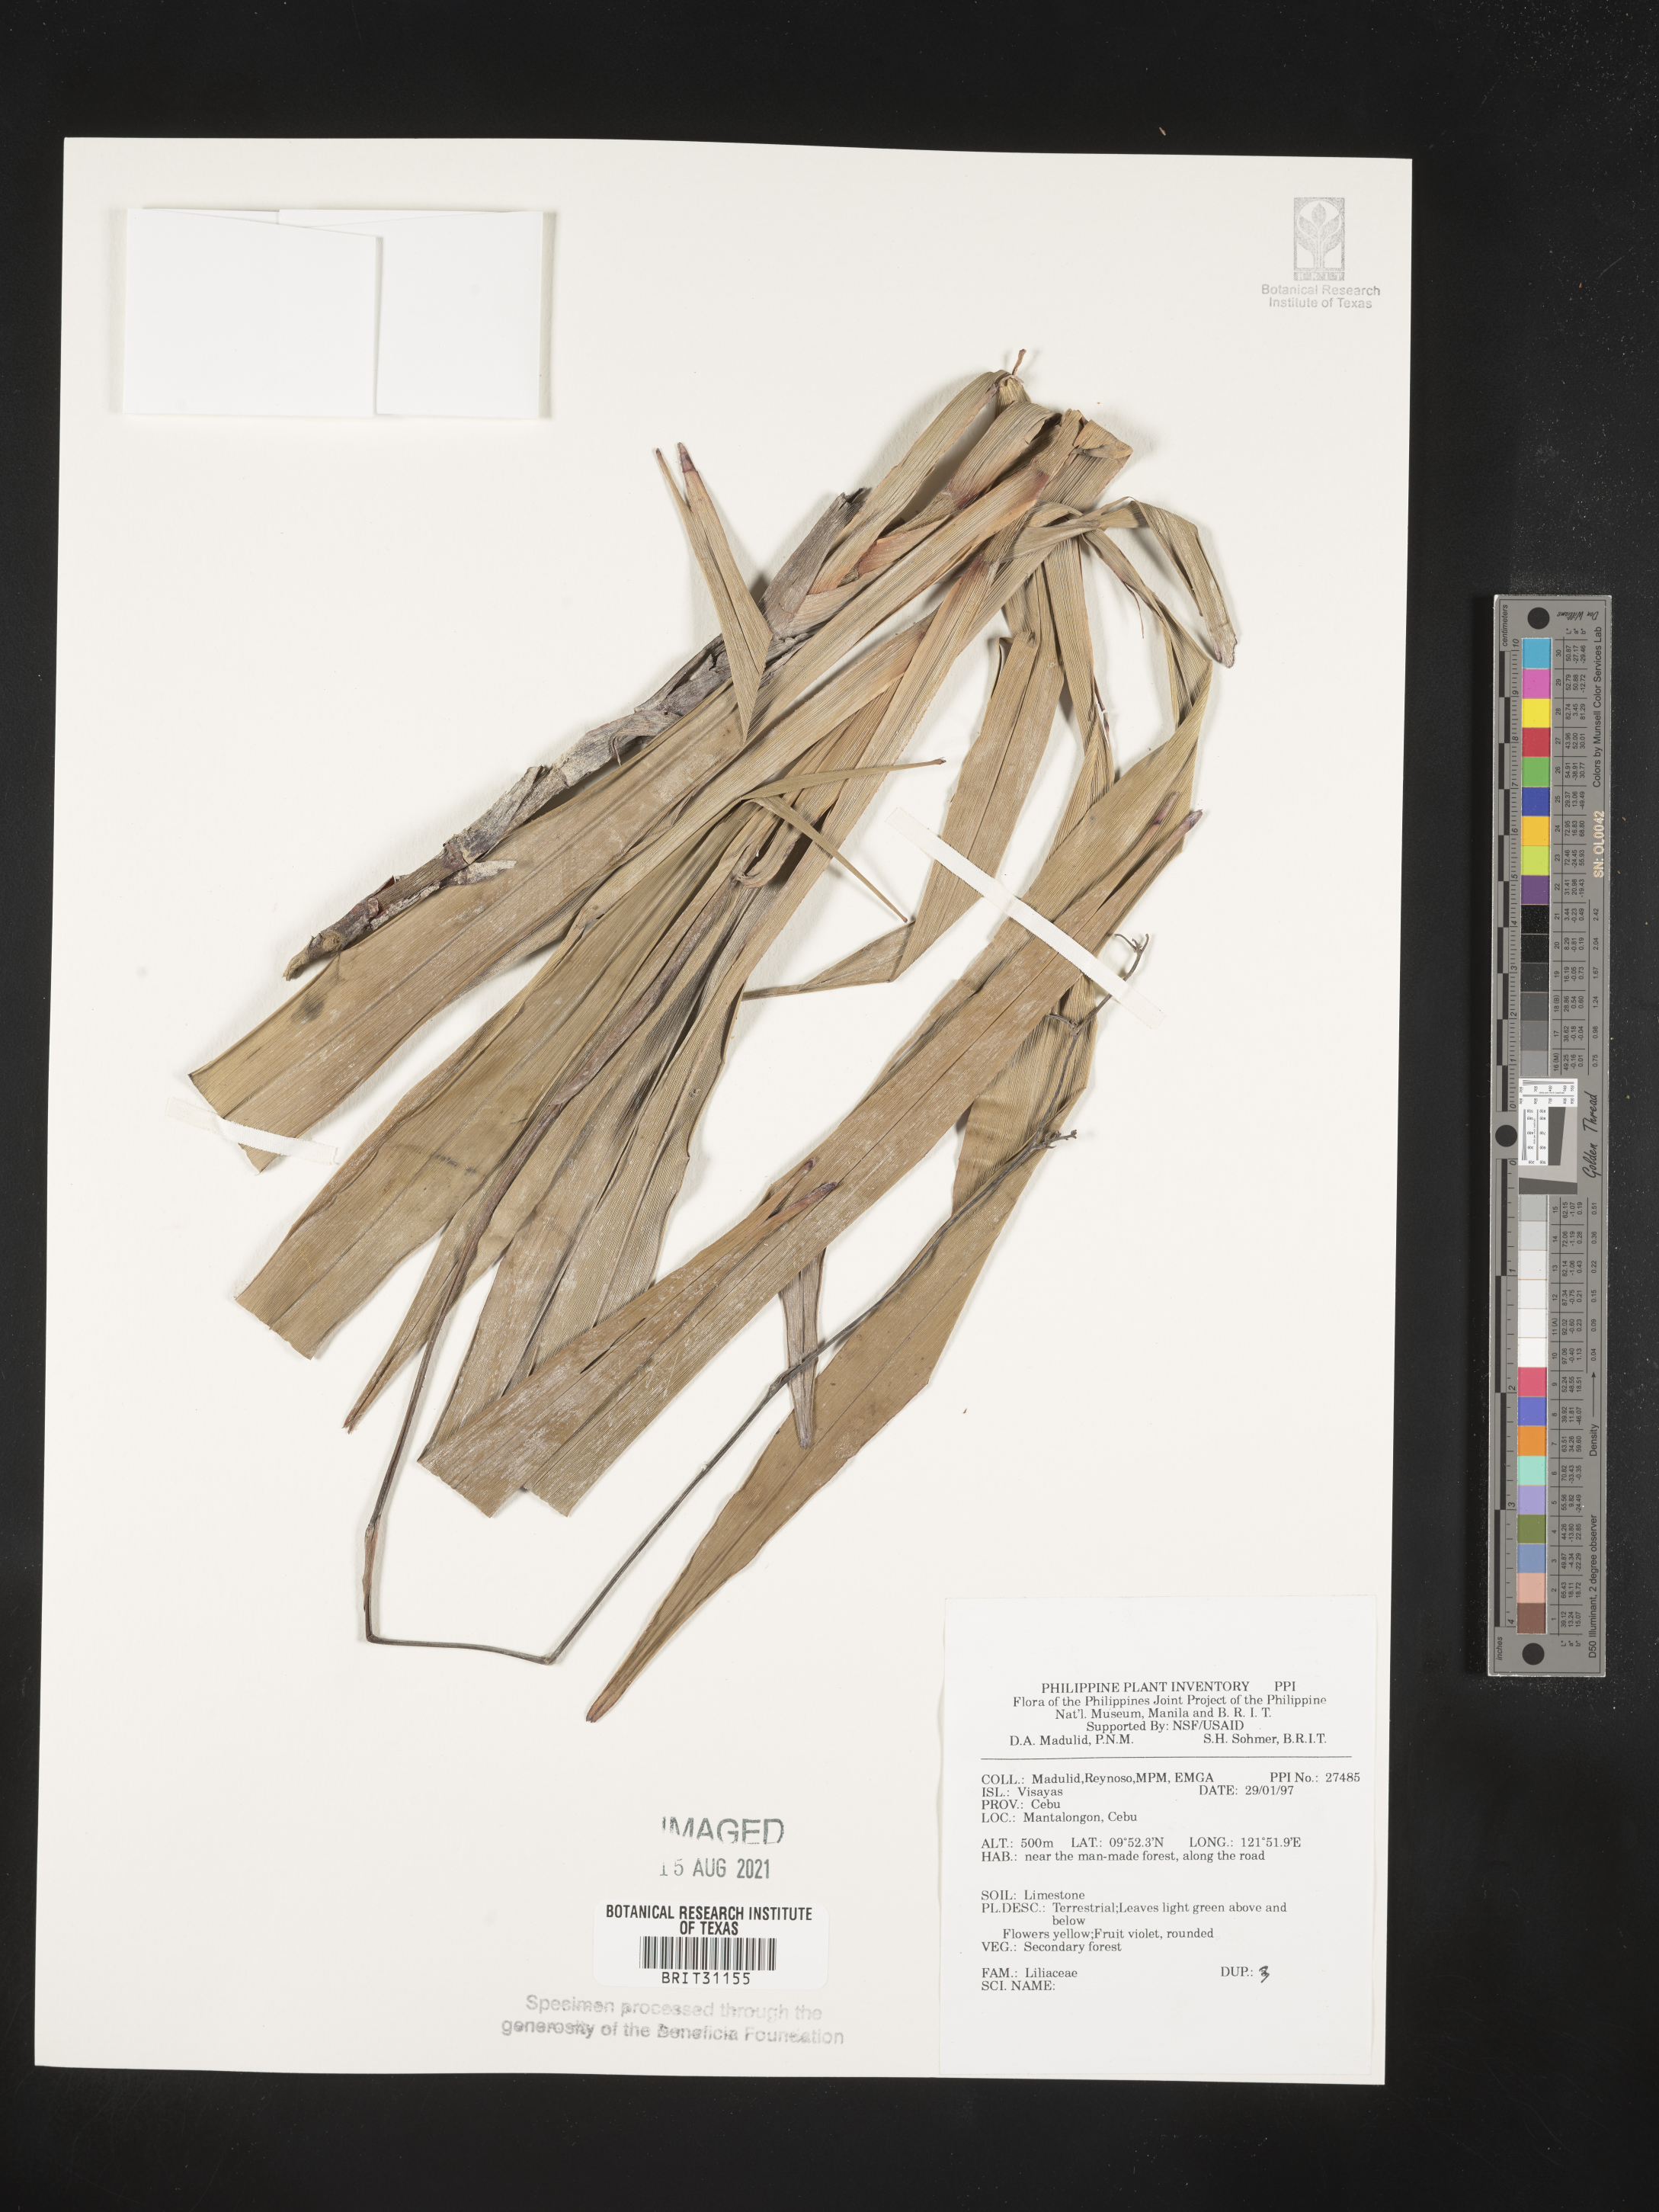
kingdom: Plantae
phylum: Tracheophyta
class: Liliopsida
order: Liliales
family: Liliaceae
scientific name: Liliaceae
